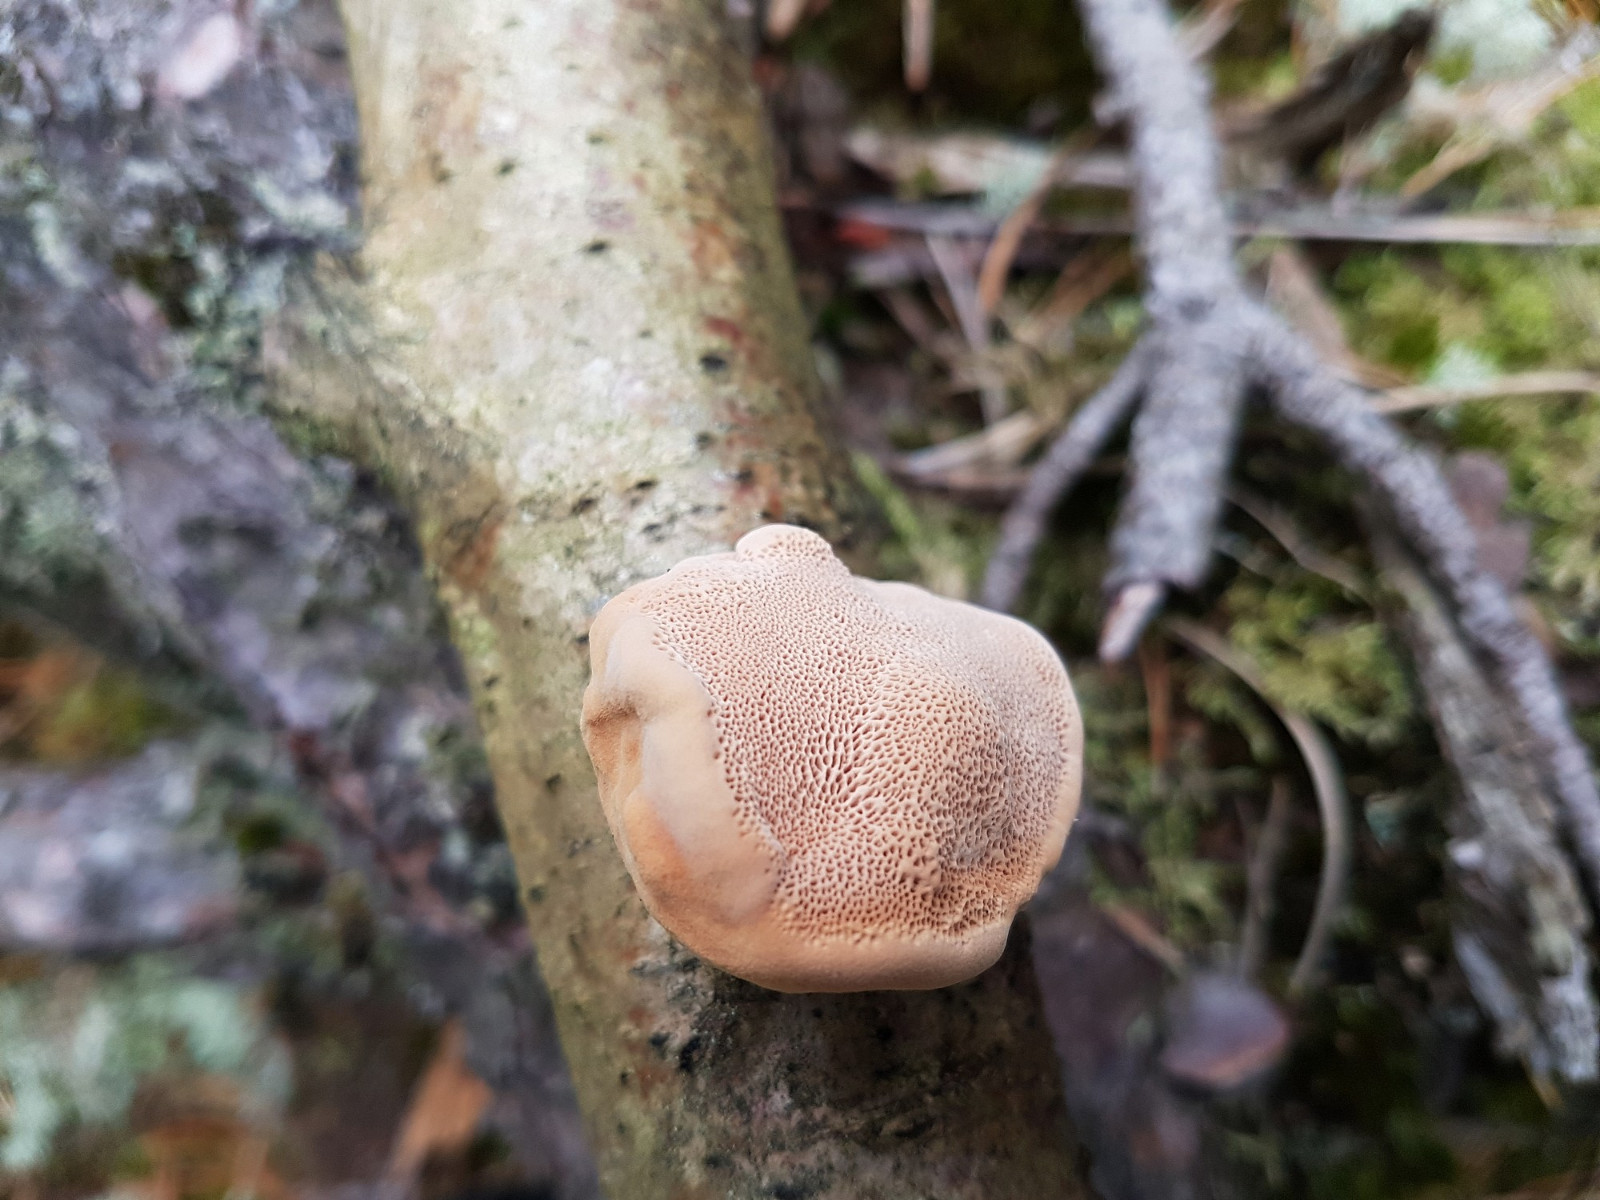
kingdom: Fungi
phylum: Basidiomycota
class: Agaricomycetes
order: Polyporales
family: Phanerochaetaceae
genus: Hapalopilus
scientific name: Hapalopilus rutilans
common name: rødlig okkerporesvamp
